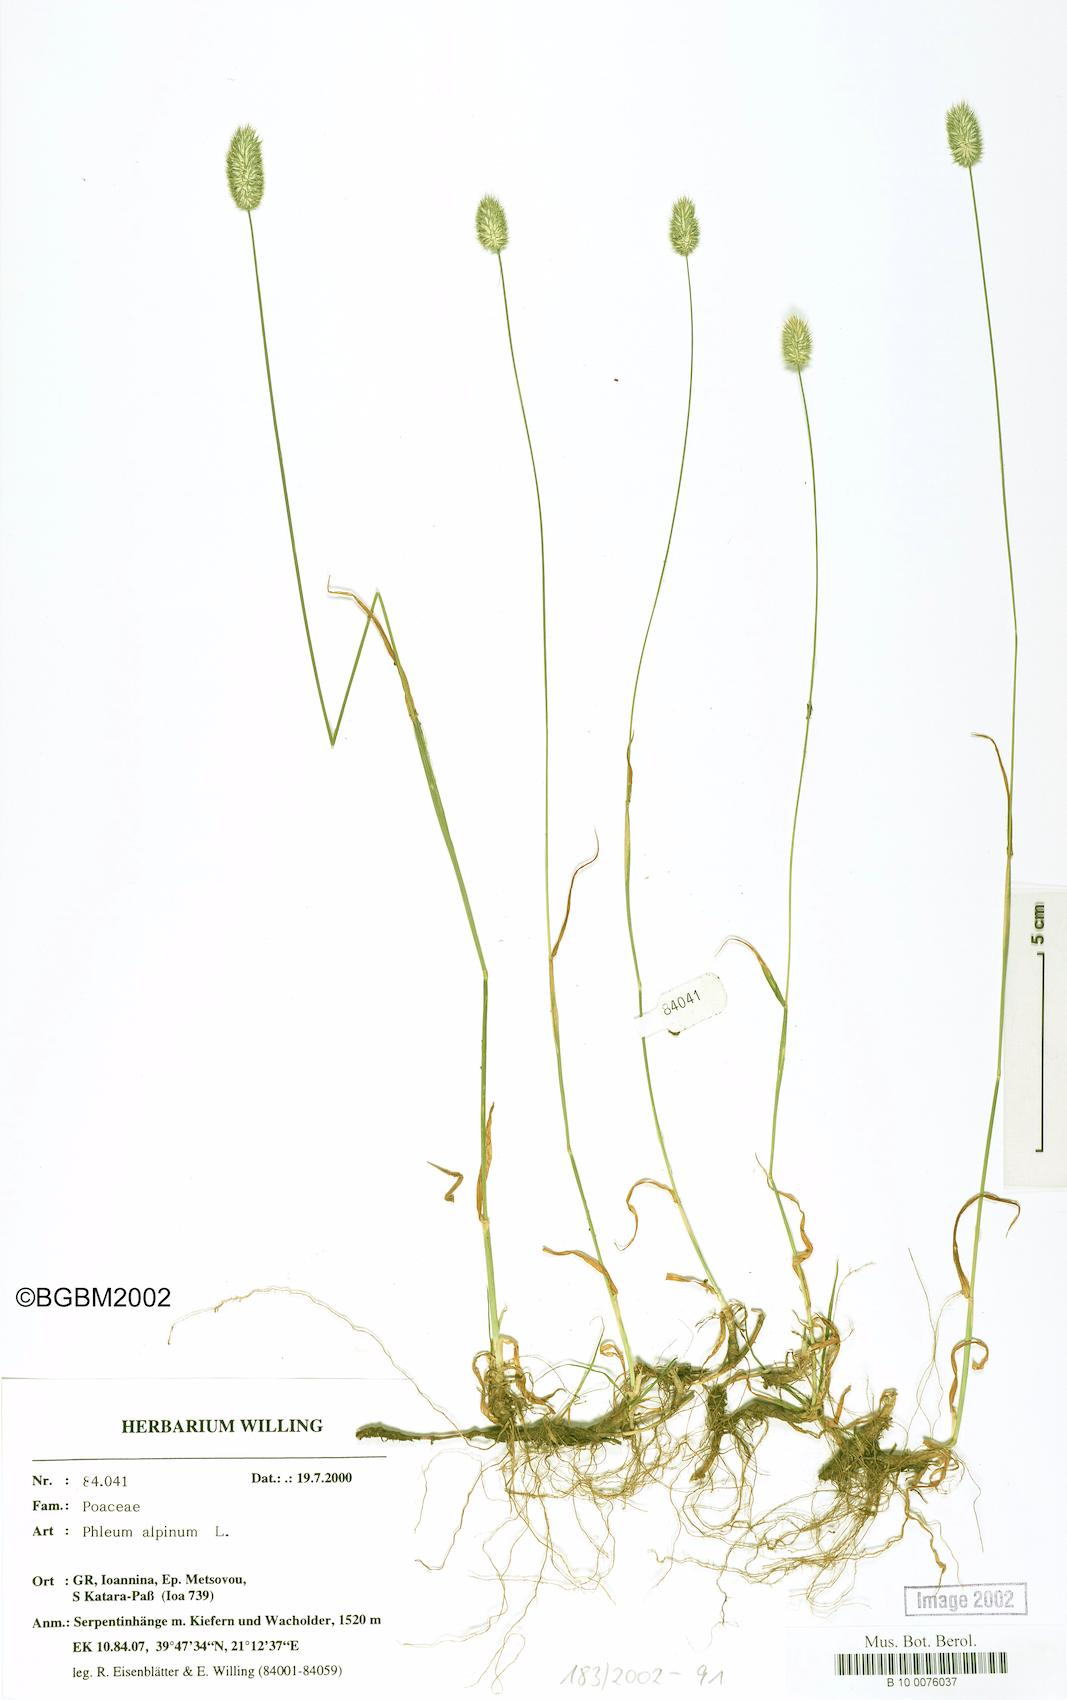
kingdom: Plantae
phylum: Tracheophyta
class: Liliopsida
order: Poales
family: Poaceae
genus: Phleum
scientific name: Phleum alpinum
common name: Alpine cat's-tail
